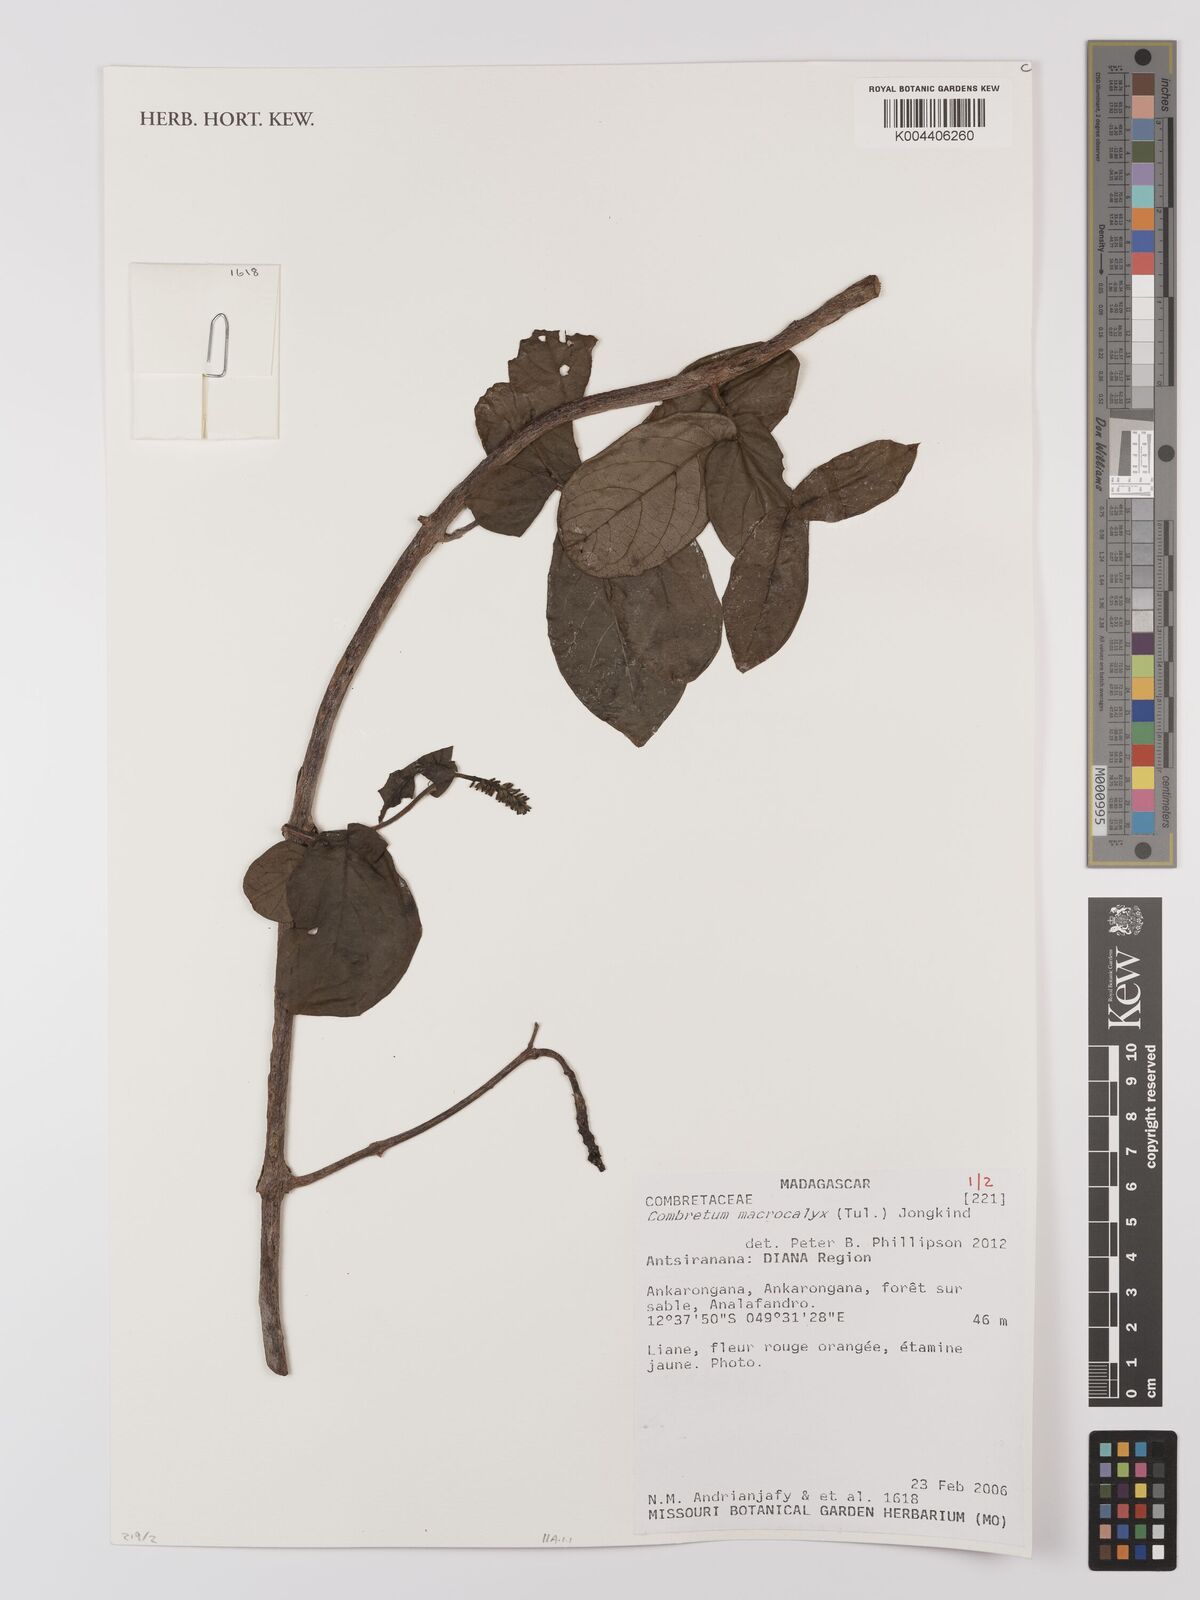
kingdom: Plantae
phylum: Tracheophyta
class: Magnoliopsida
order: Myrtales
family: Combretaceae
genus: Combretum
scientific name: Combretum macrocalyx
